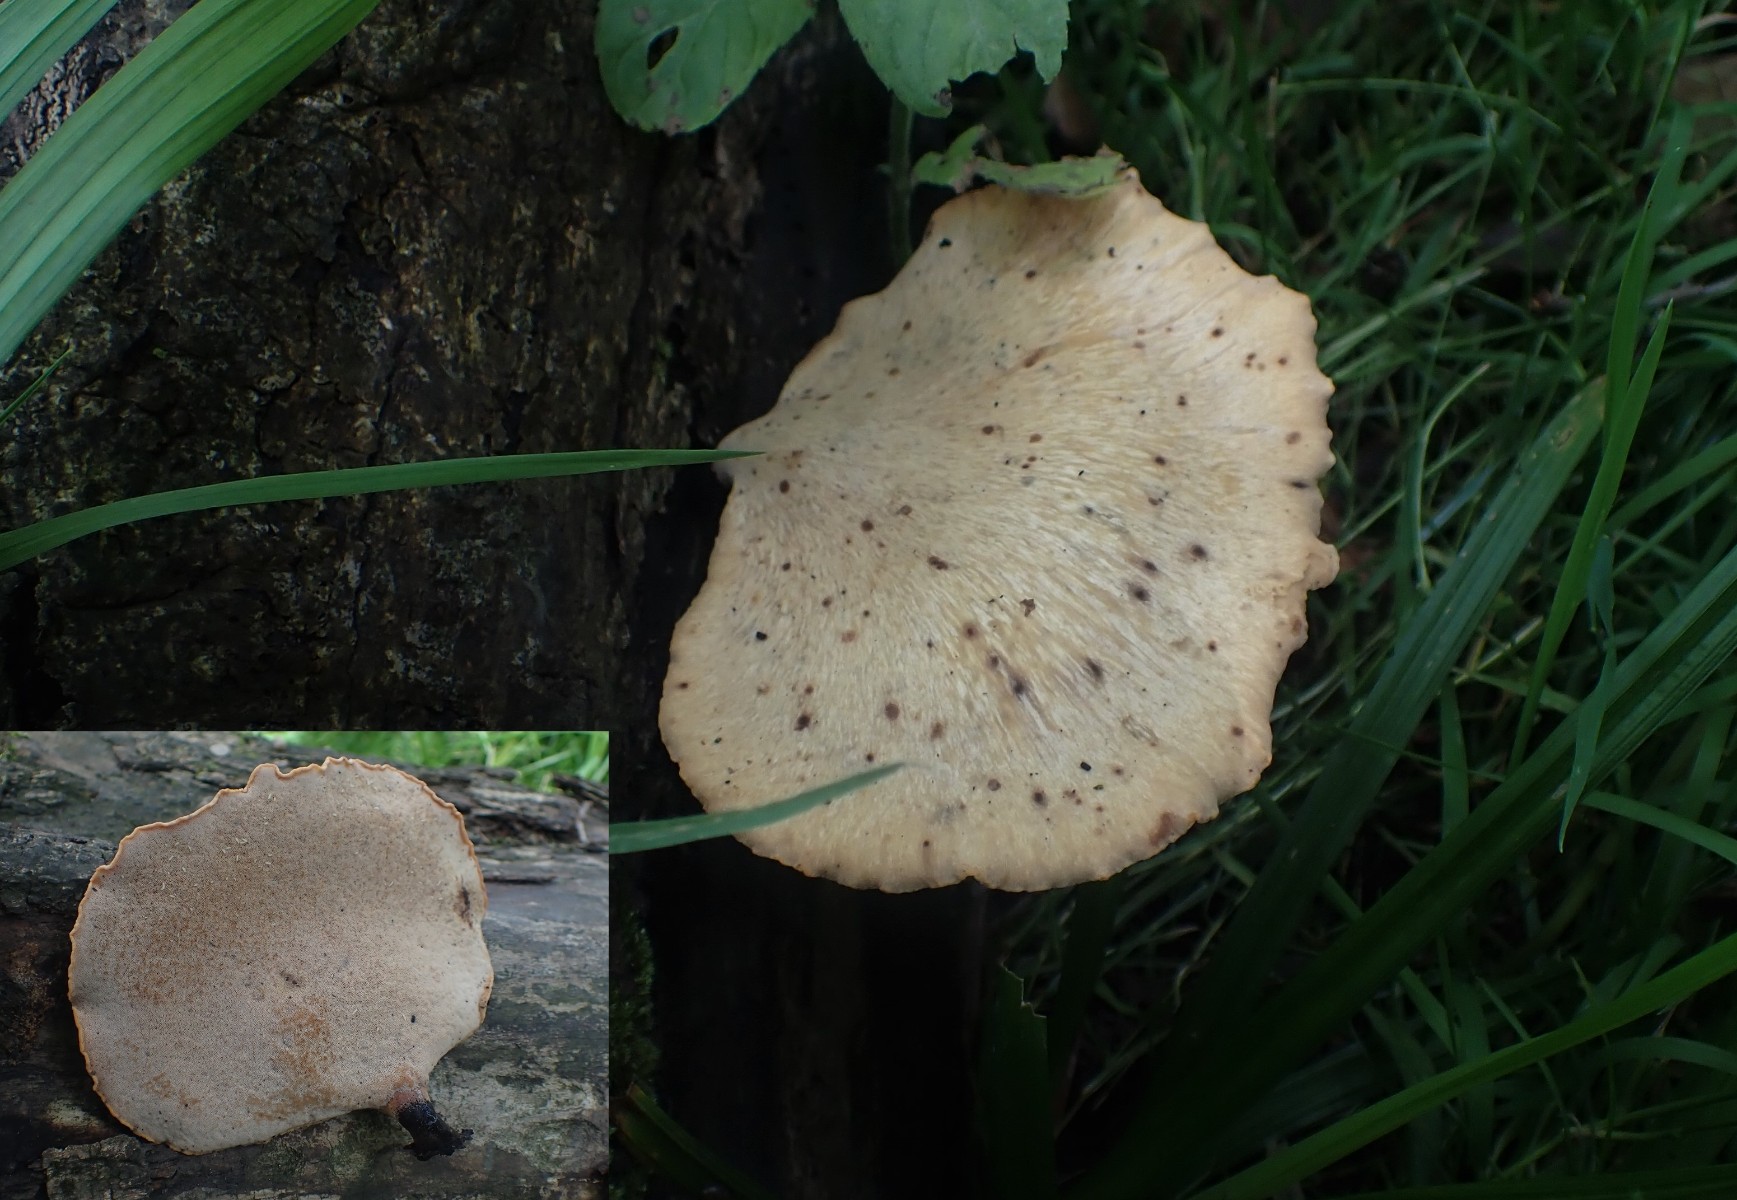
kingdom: Fungi
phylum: Basidiomycota
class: Agaricomycetes
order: Polyporales
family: Polyporaceae
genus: Cerioporus
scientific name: Cerioporus varius
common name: foranderlig stilkporesvamp
